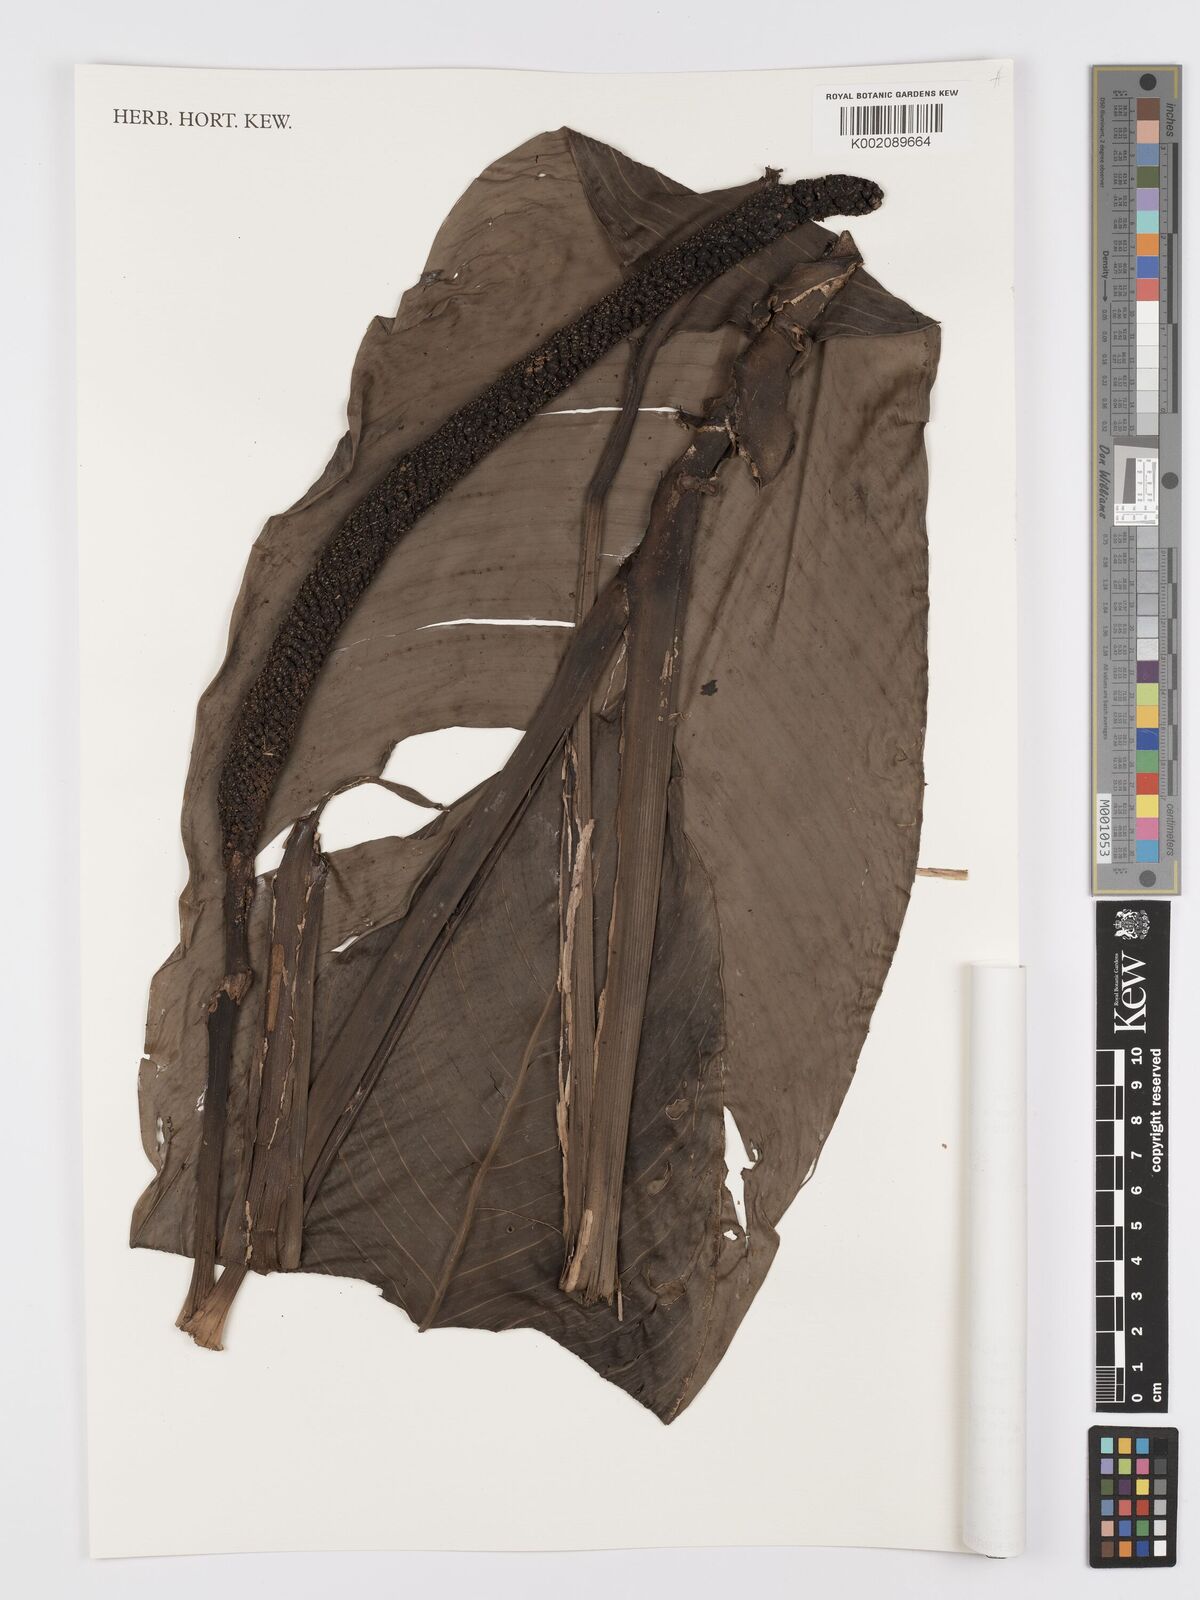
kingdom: Plantae
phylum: Tracheophyta
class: Liliopsida
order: Alismatales
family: Araceae
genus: Rhodospatha
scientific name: Rhodospatha oblongata
